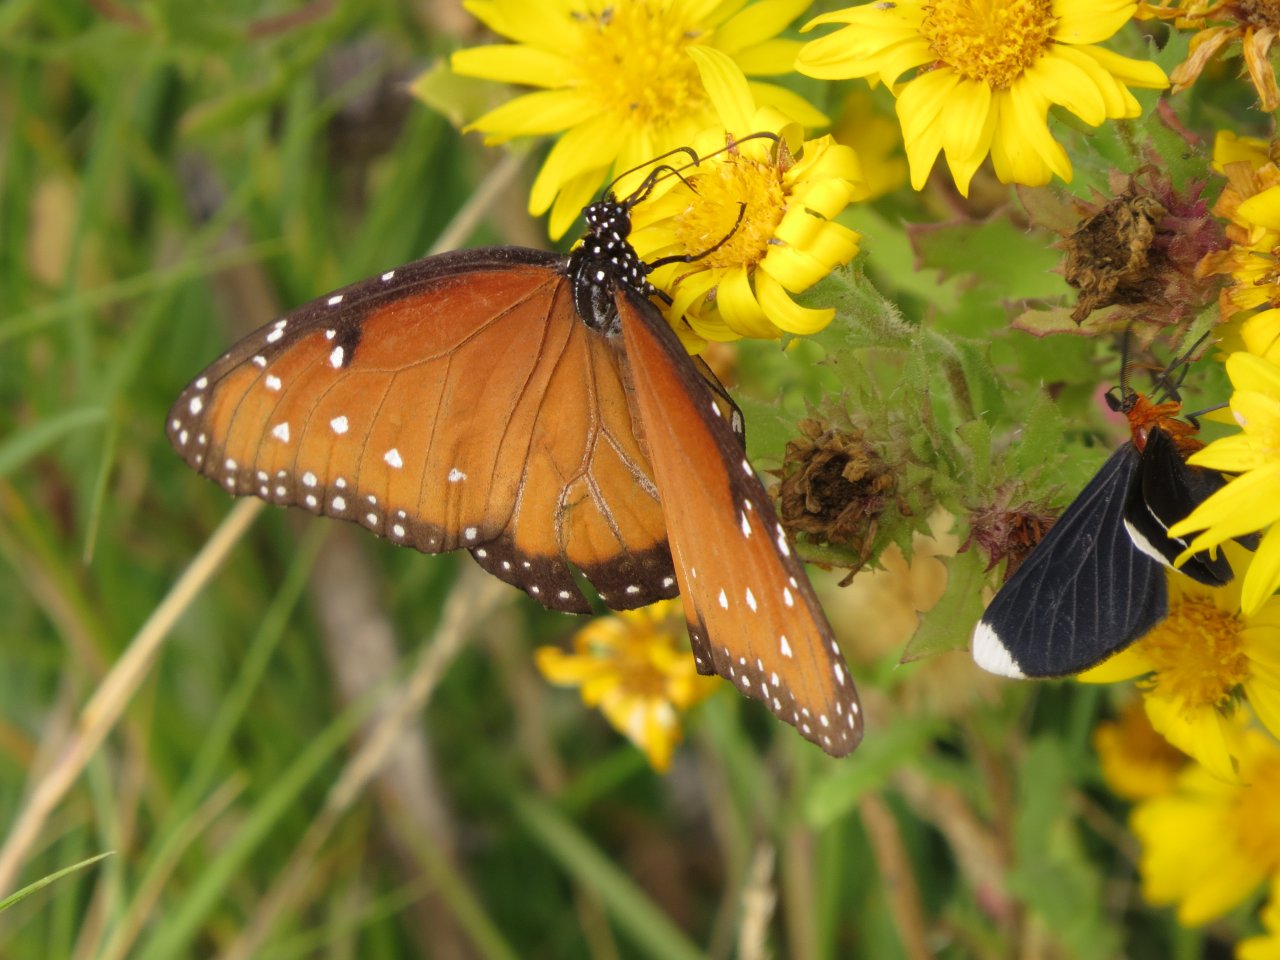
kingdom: Animalia
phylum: Arthropoda
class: Insecta
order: Lepidoptera
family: Nymphalidae
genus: Danaus
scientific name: Danaus gilippus
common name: Queen
